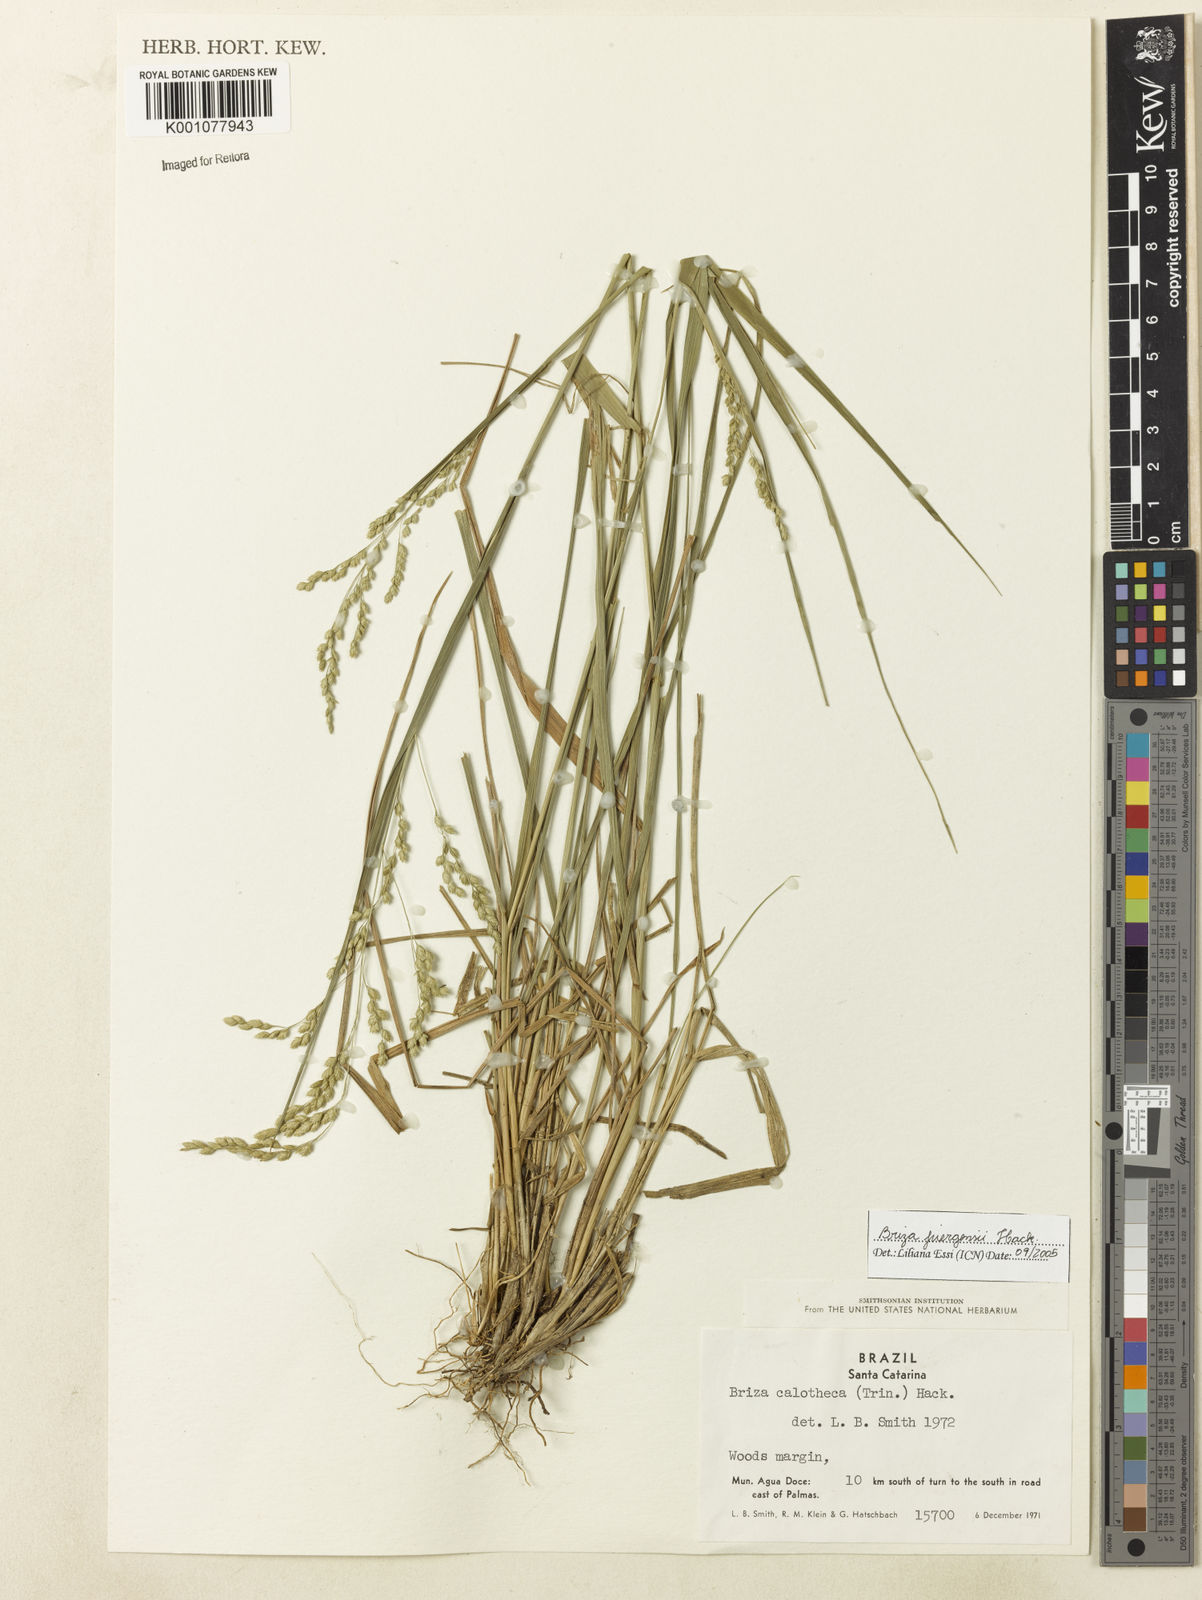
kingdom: Plantae
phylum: Tracheophyta
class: Liliopsida
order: Poales
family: Poaceae
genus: Poidium
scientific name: Poidium juergensii
